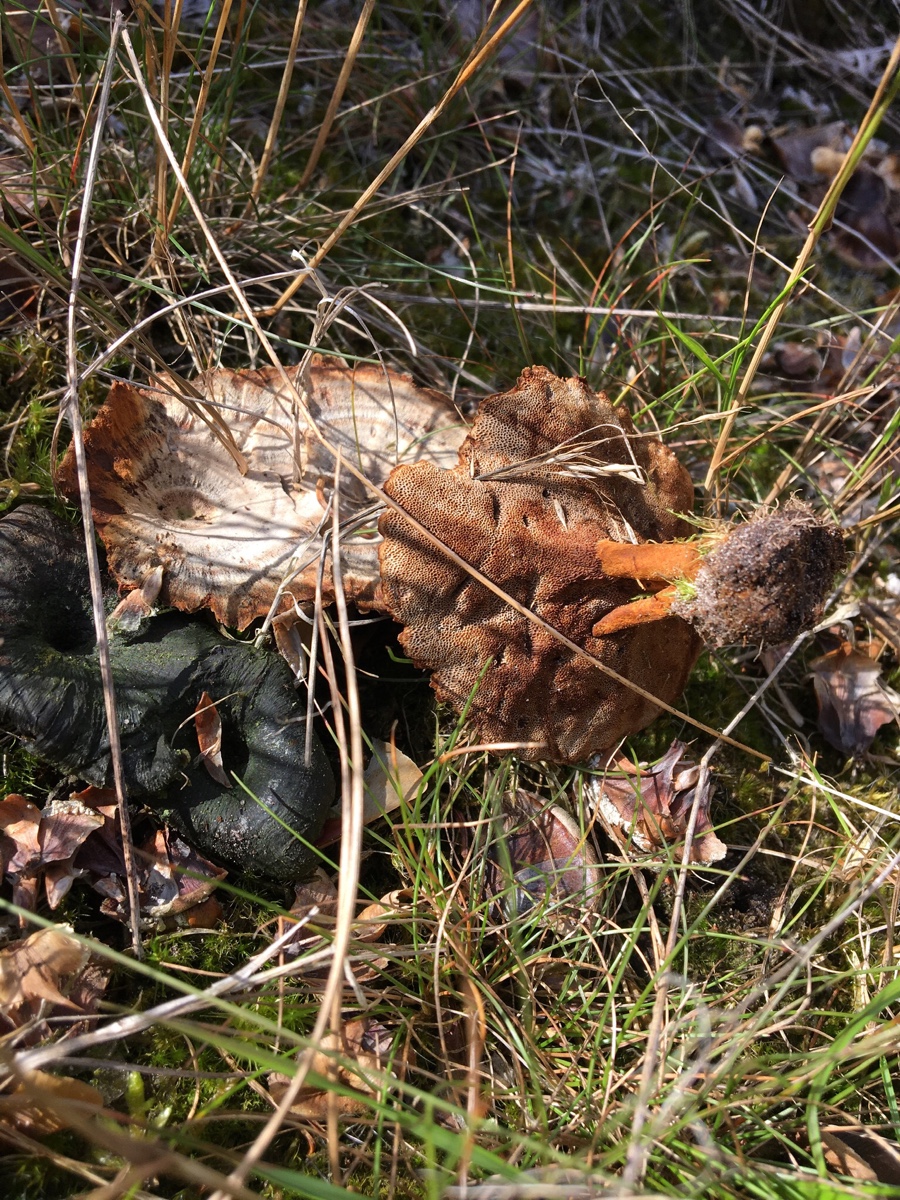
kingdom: Fungi
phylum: Basidiomycota
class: Agaricomycetes
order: Hymenochaetales
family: Hymenochaetaceae
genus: Coltricia
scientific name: Coltricia perennis
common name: almindelig sandporesvamp
